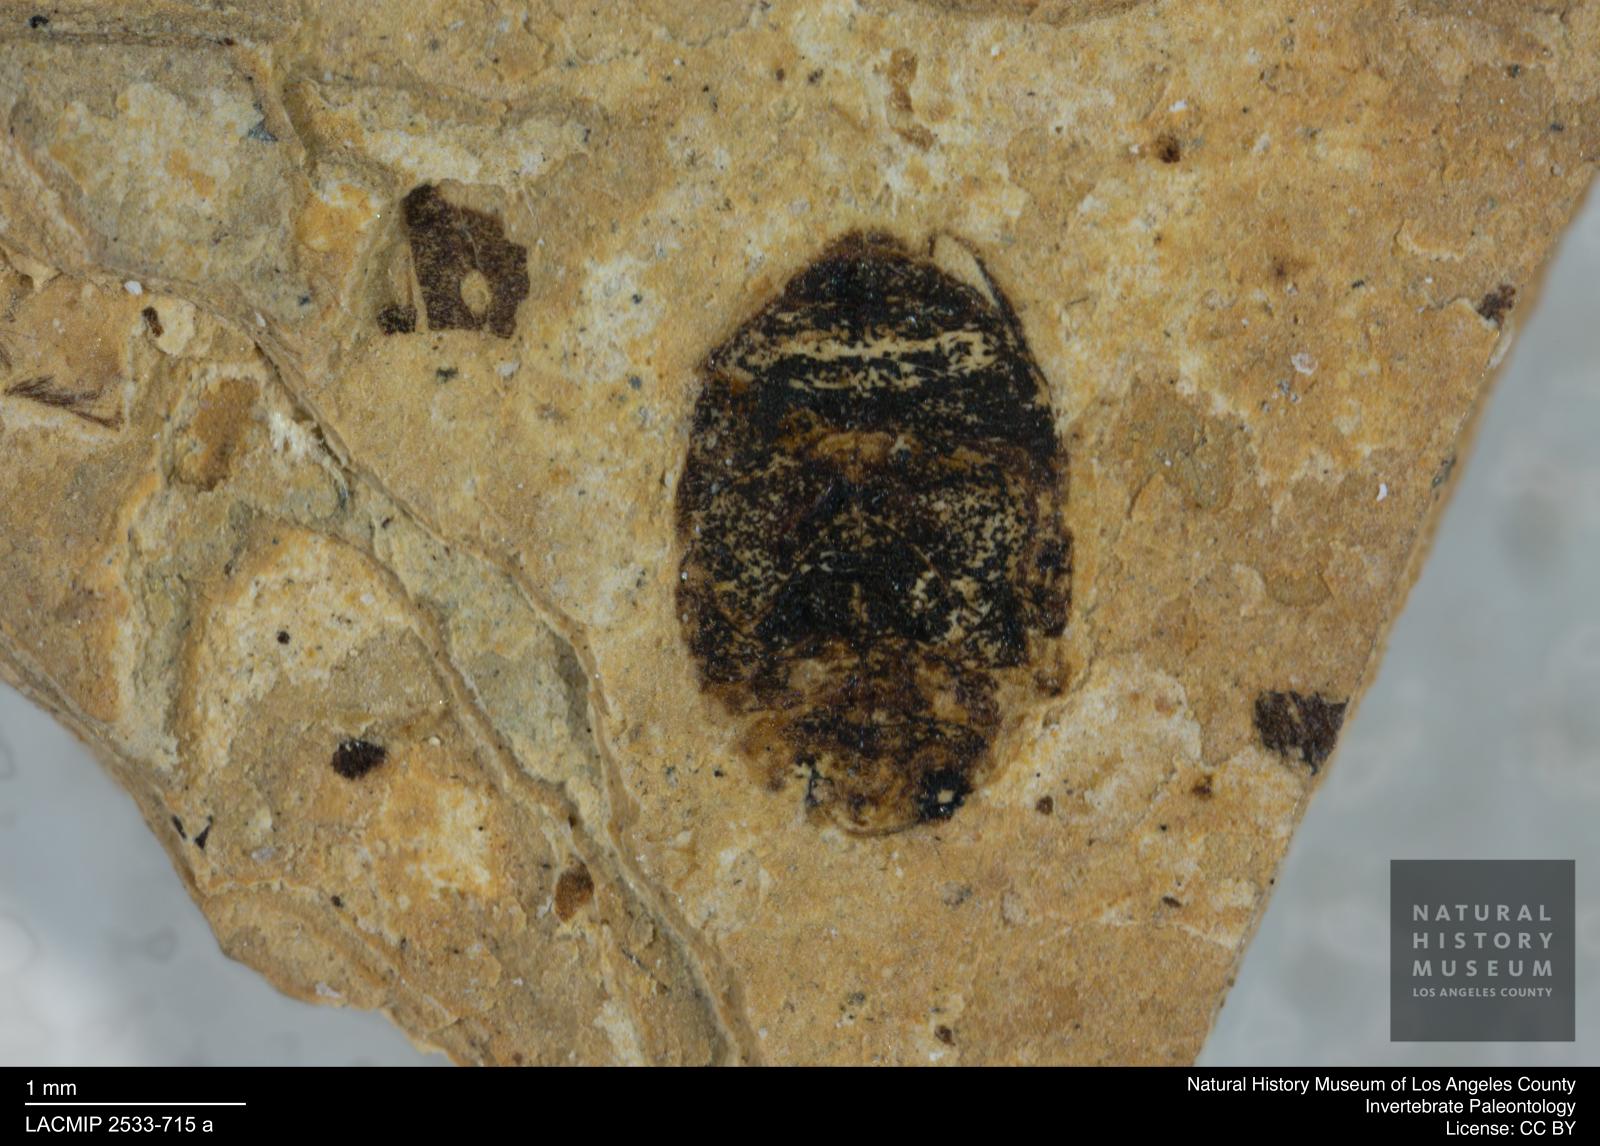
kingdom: Animalia
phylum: Arthropoda
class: Insecta
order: Coleoptera
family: Dytiscidae
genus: Oreodytes
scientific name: Oreodytes cryptolineatus
